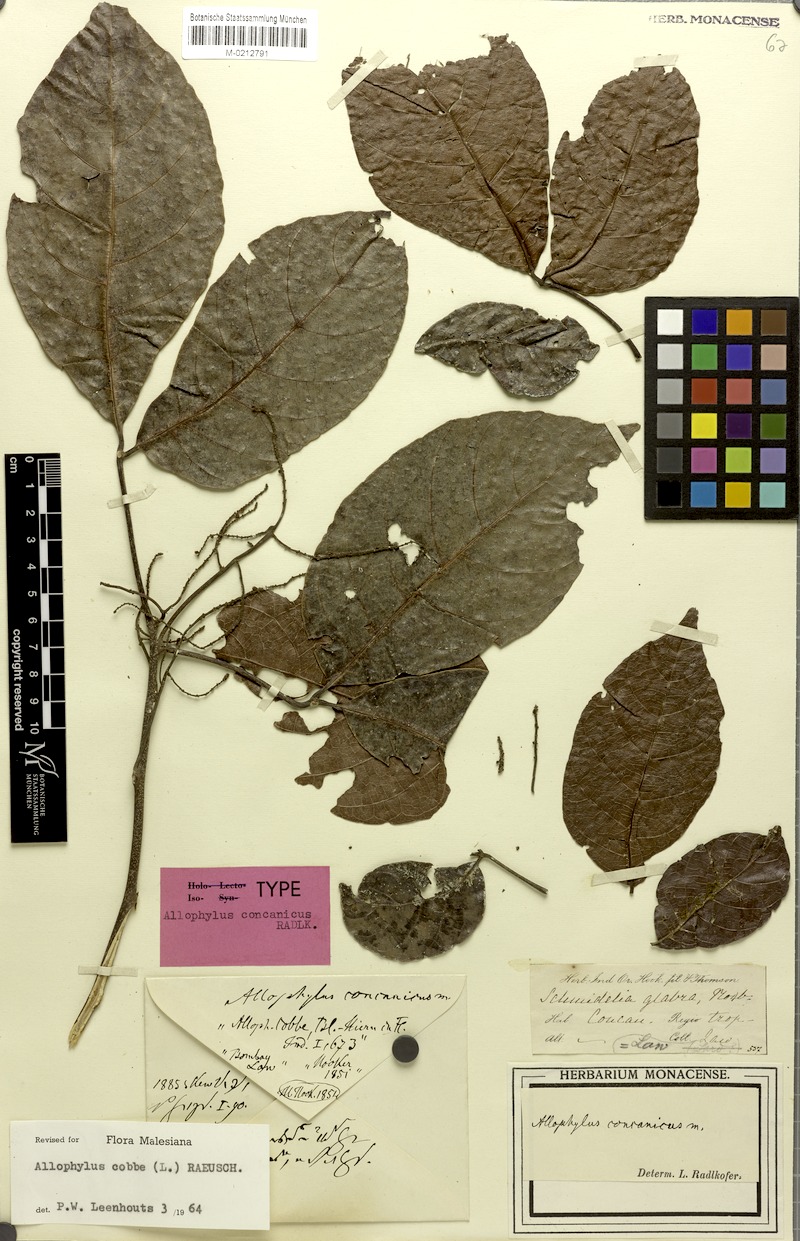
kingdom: Plantae
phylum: Tracheophyta
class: Magnoliopsida
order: Sapindales
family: Sapindaceae
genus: Allophylus
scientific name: Allophylus concanicus
